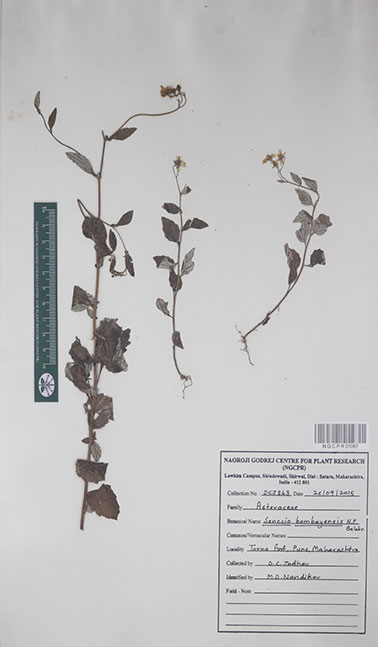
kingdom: Plantae
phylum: Tracheophyta
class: Magnoliopsida
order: Asterales
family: Asteraceae
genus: Senecio
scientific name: Senecio bombayensis
